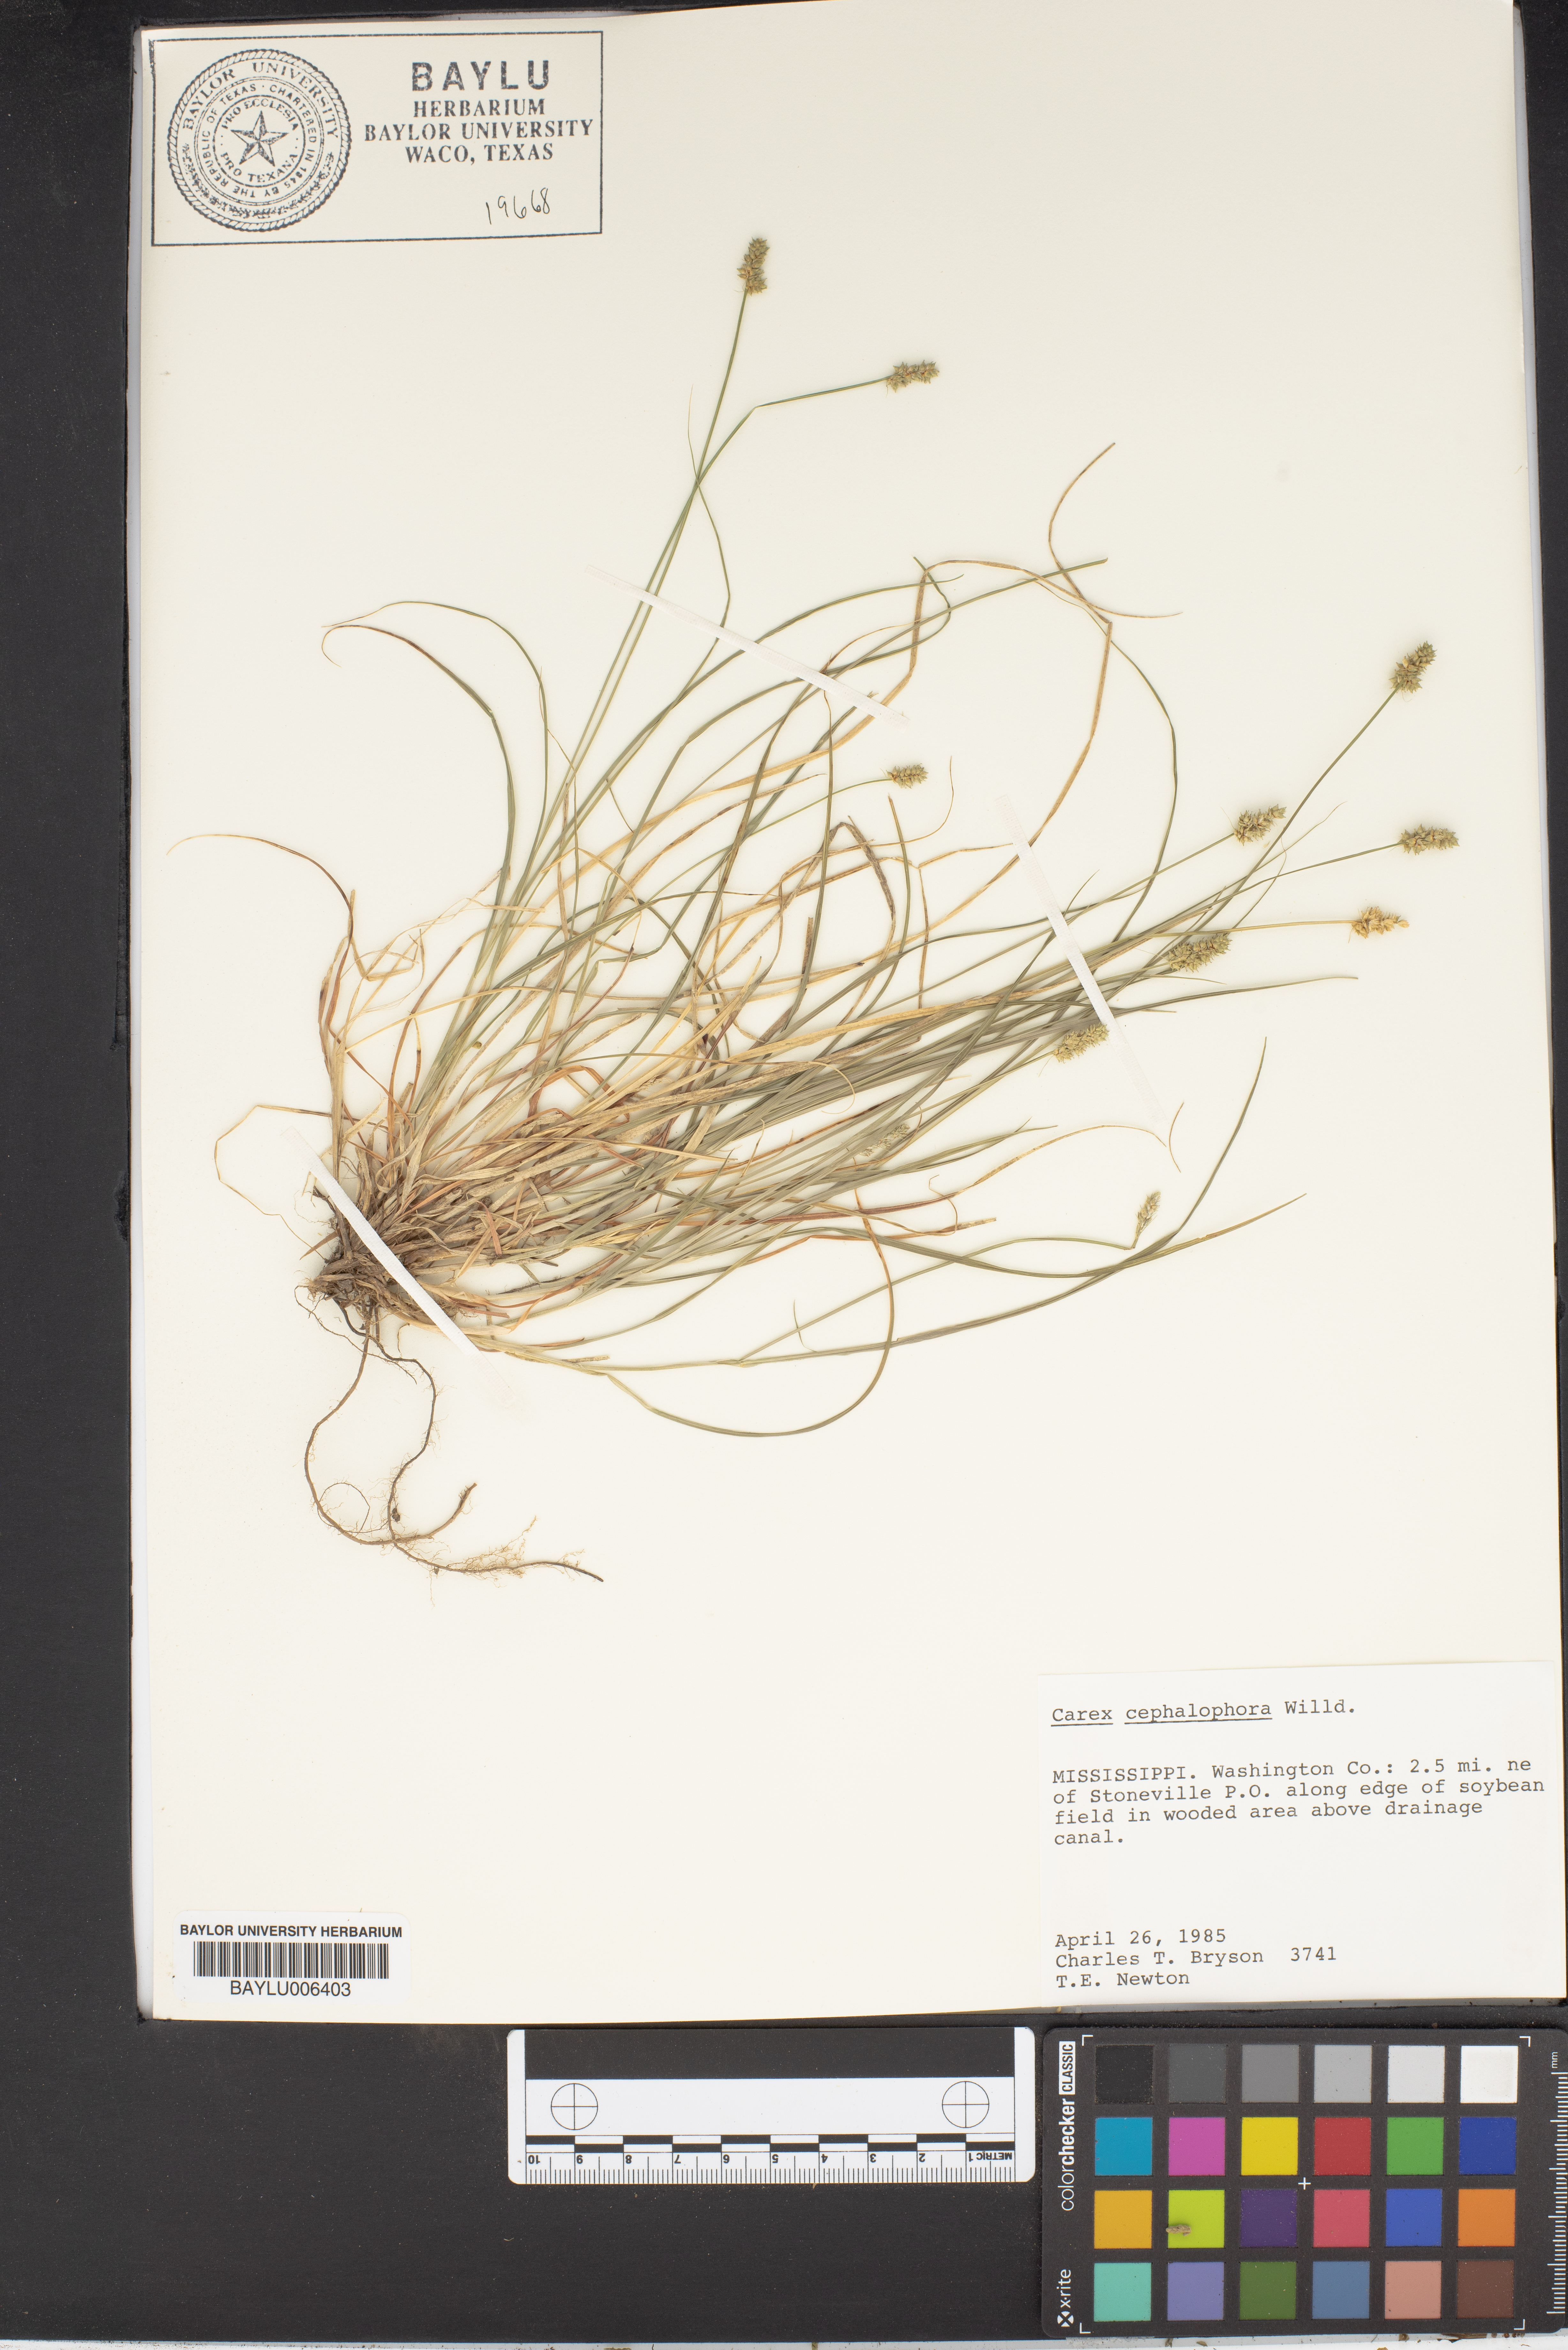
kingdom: Plantae
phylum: Tracheophyta
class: Liliopsida
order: Poales
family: Cyperaceae
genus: Carex
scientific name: Carex cephalophora
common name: Oval-headed sedge
